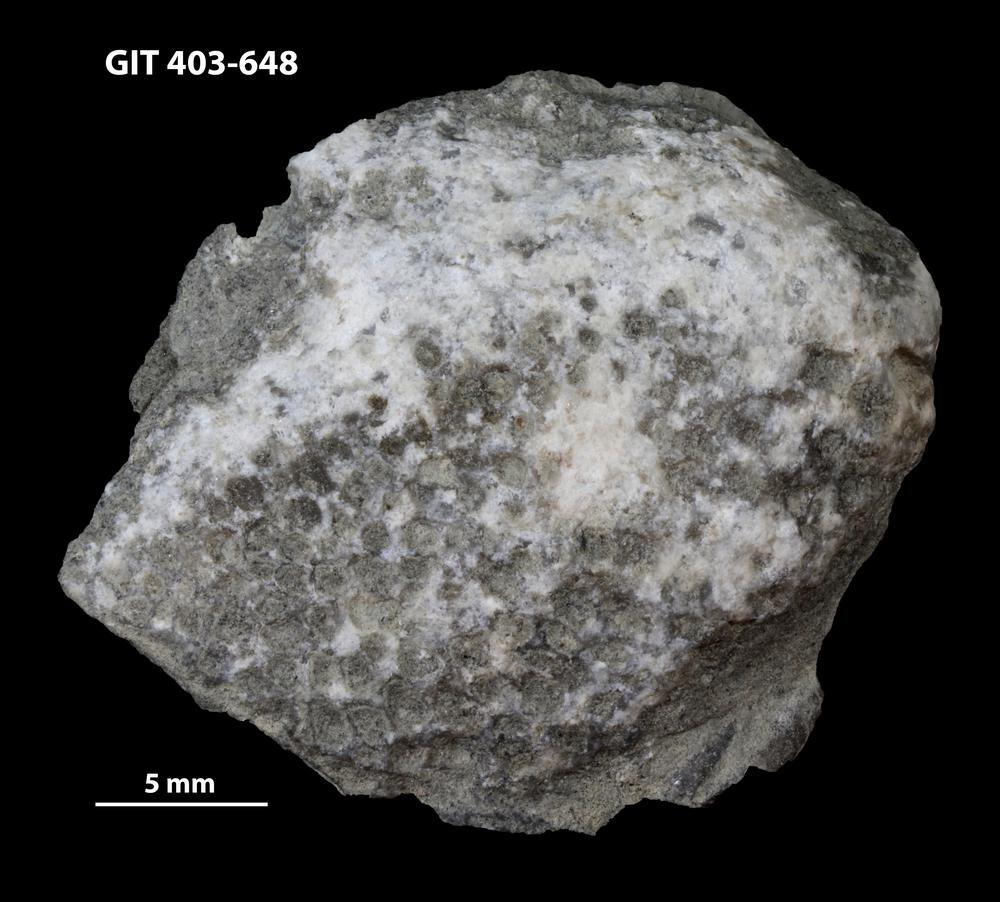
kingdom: Animalia
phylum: Cnidaria
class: Anthozoa
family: Favositidae
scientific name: Favositidae
